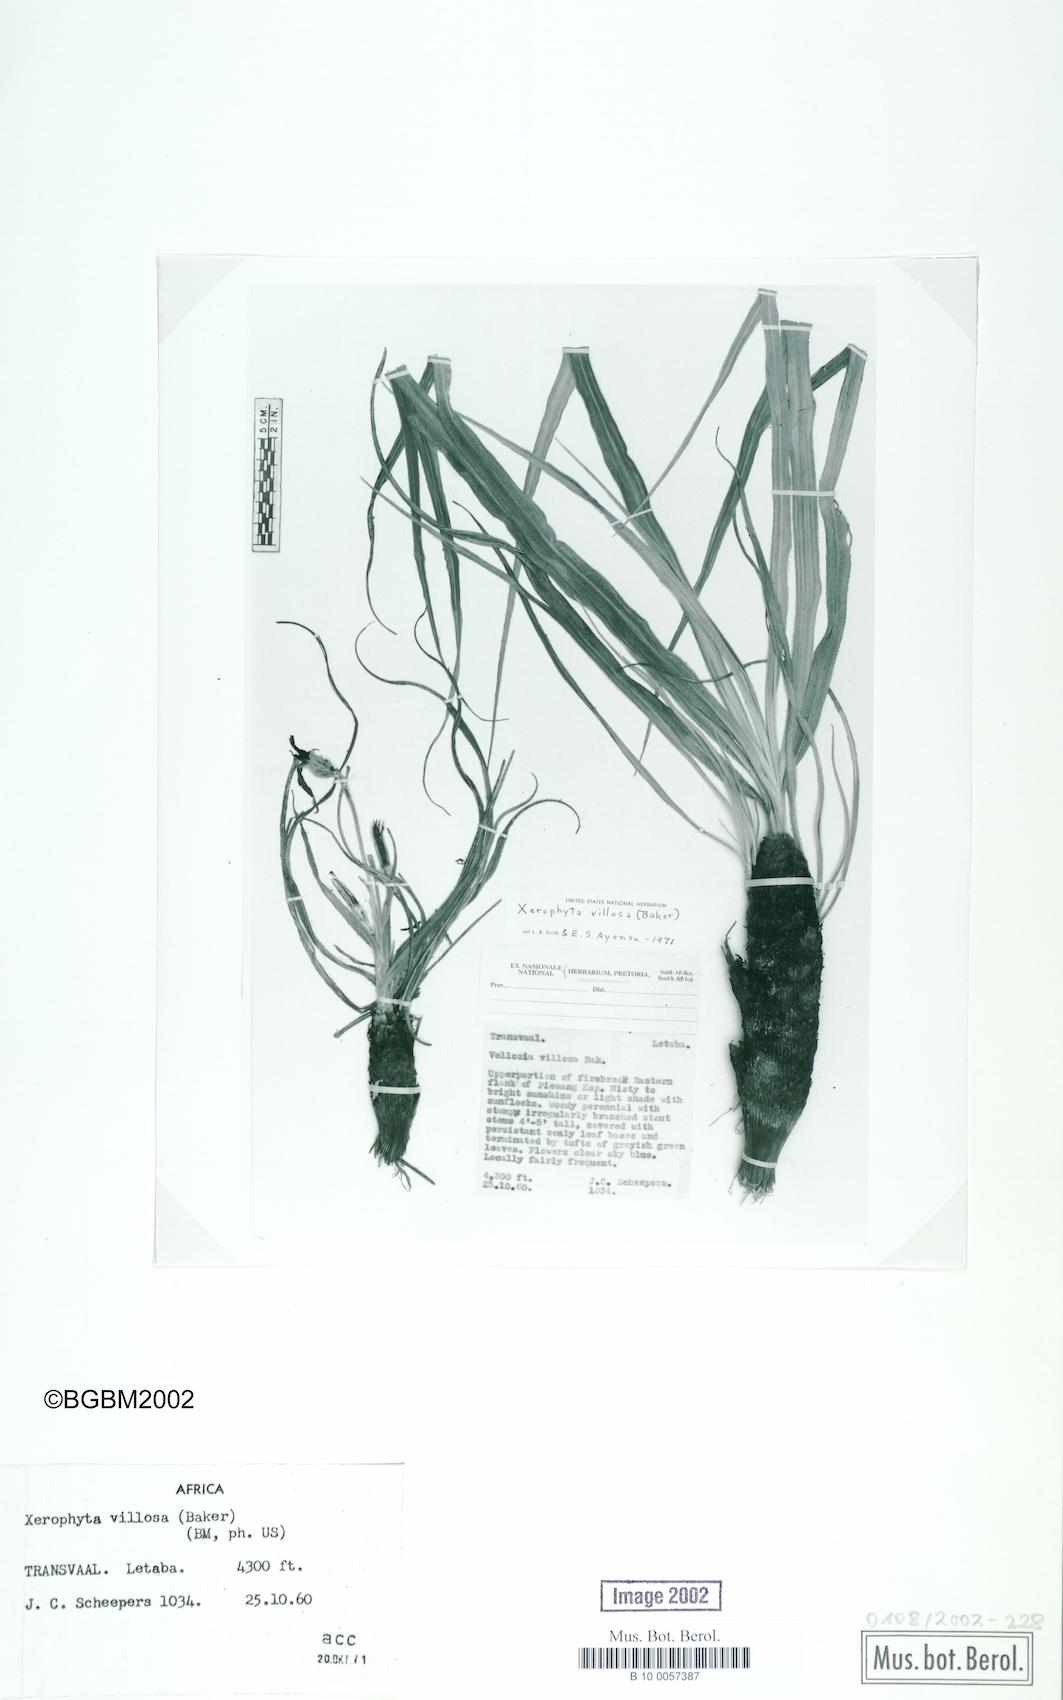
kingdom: Plantae
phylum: Tracheophyta
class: Liliopsida
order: Pandanales
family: Velloziaceae
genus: Xerophyta
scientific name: Xerophyta villosa
